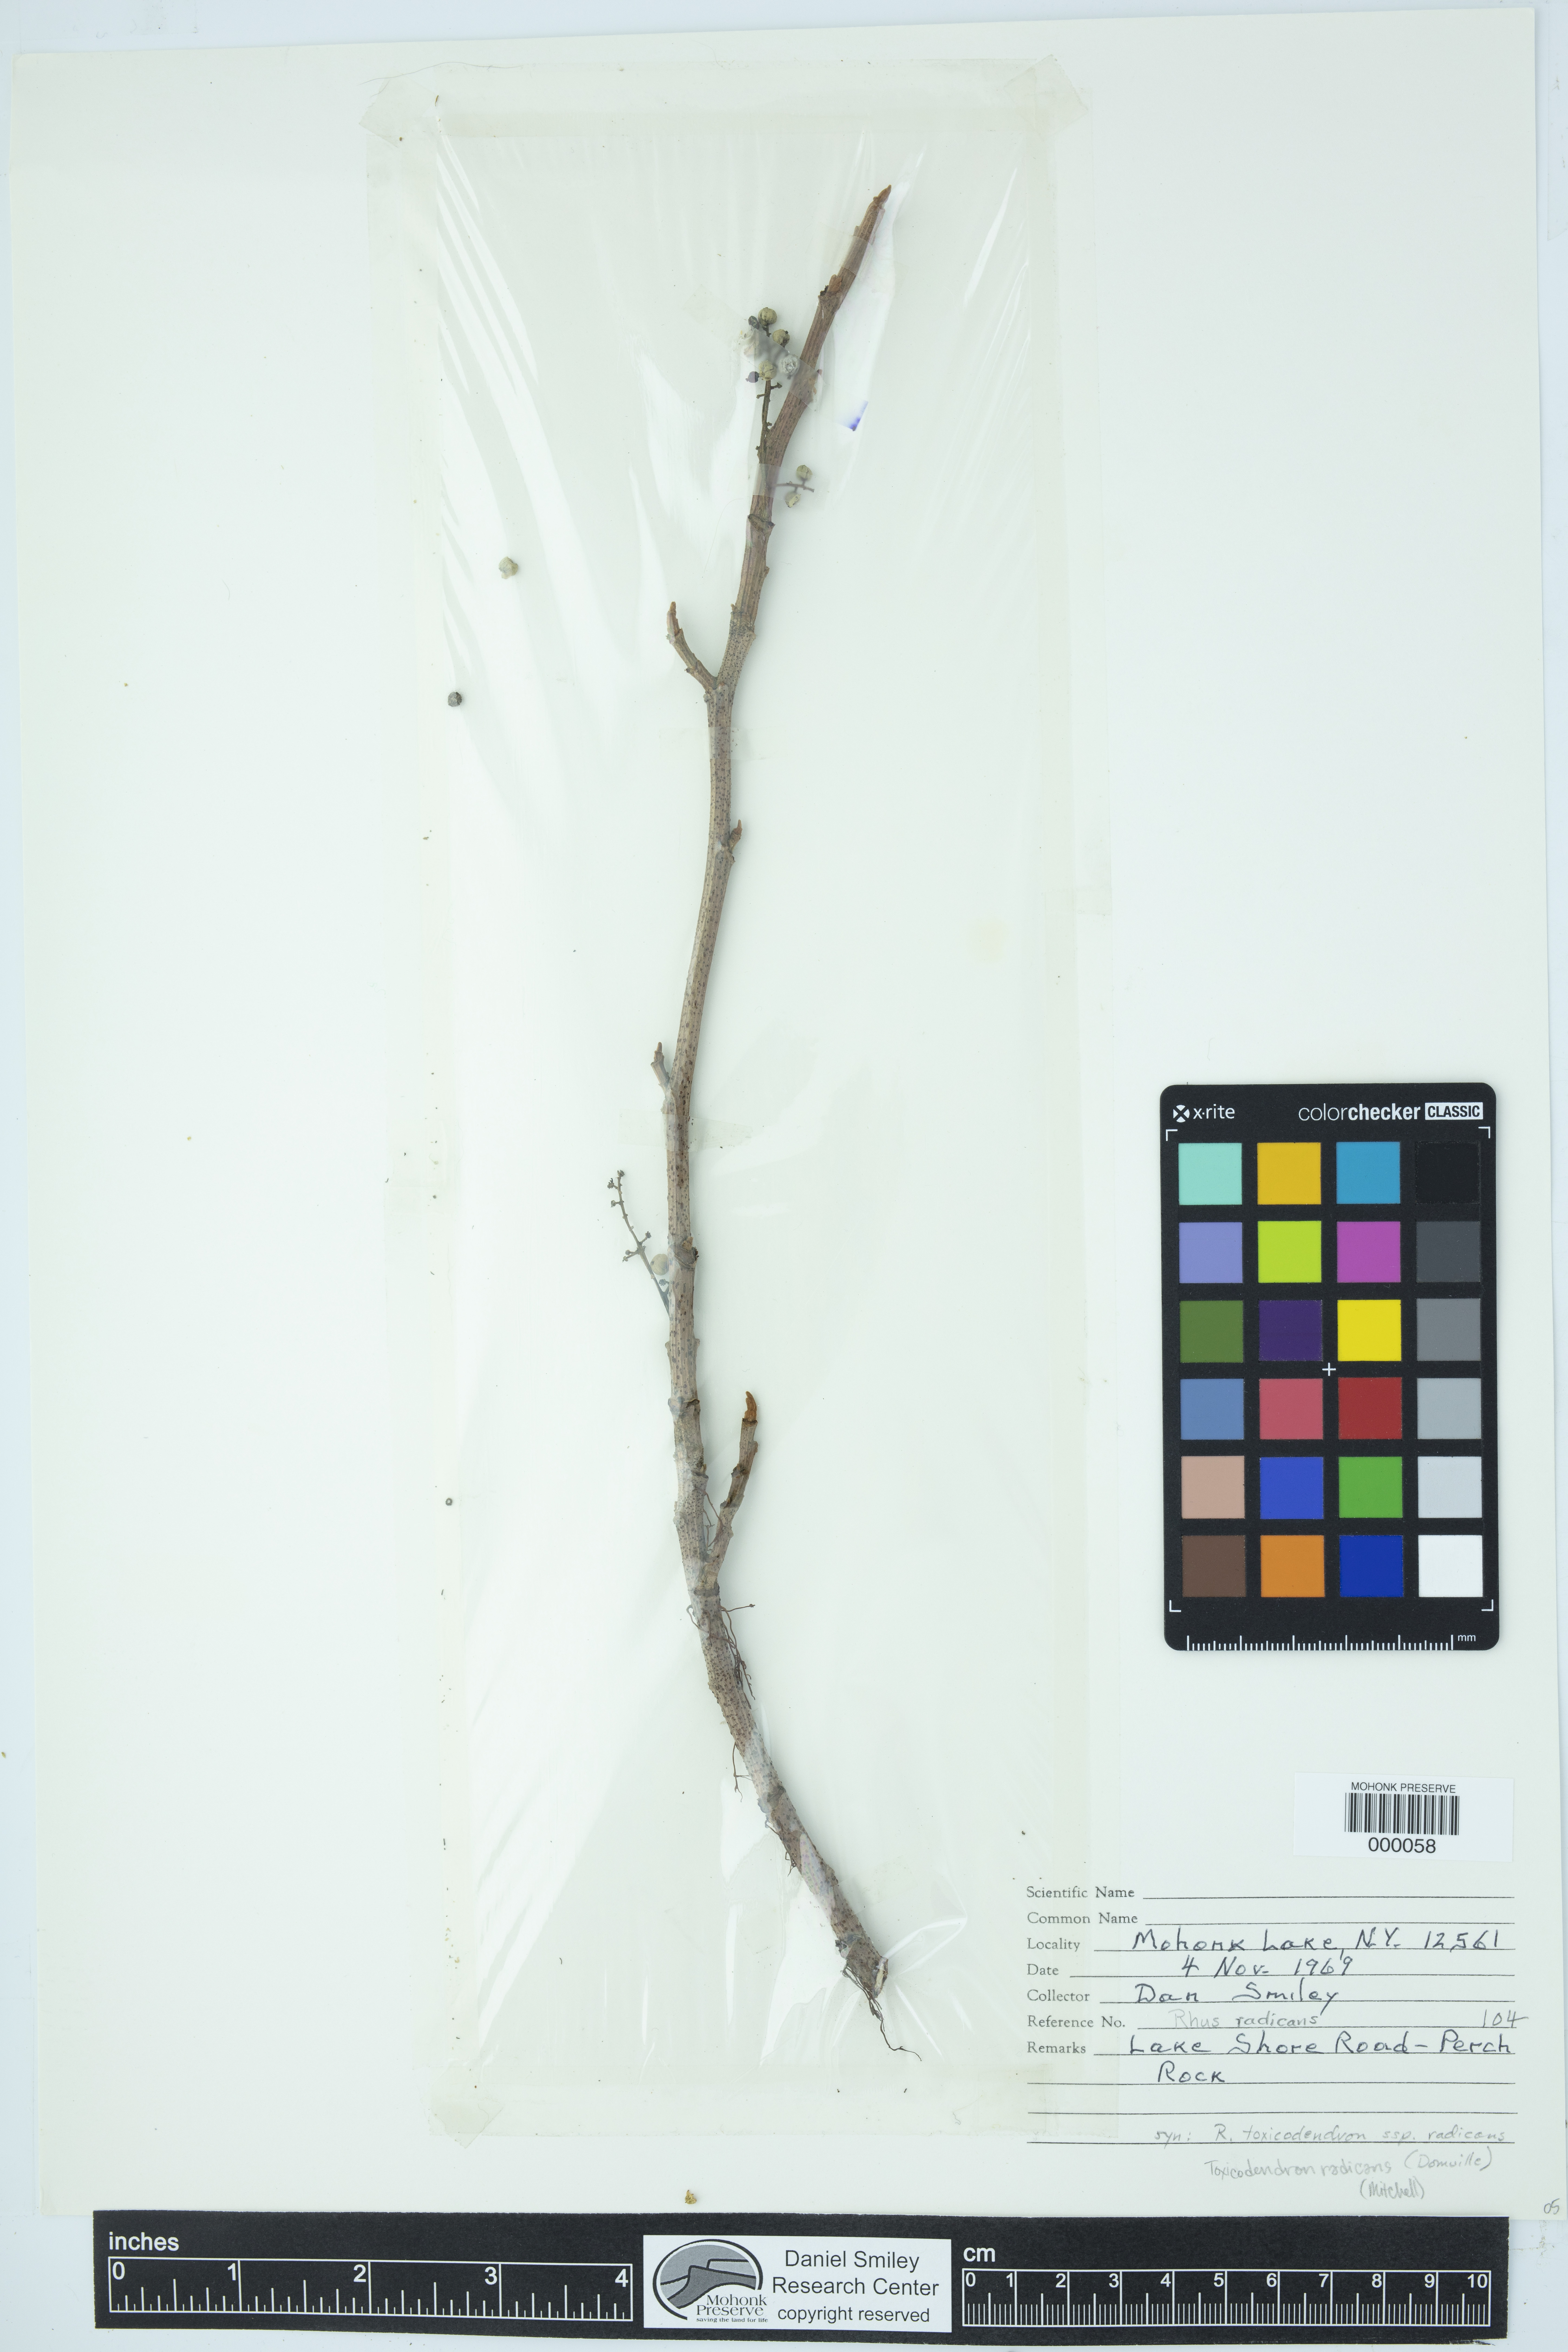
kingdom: Plantae
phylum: Tracheophyta
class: Magnoliopsida
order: Sapindales
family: Anacardiaceae
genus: Toxicodendron
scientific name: Toxicodendron radicans
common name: Poison ivy
